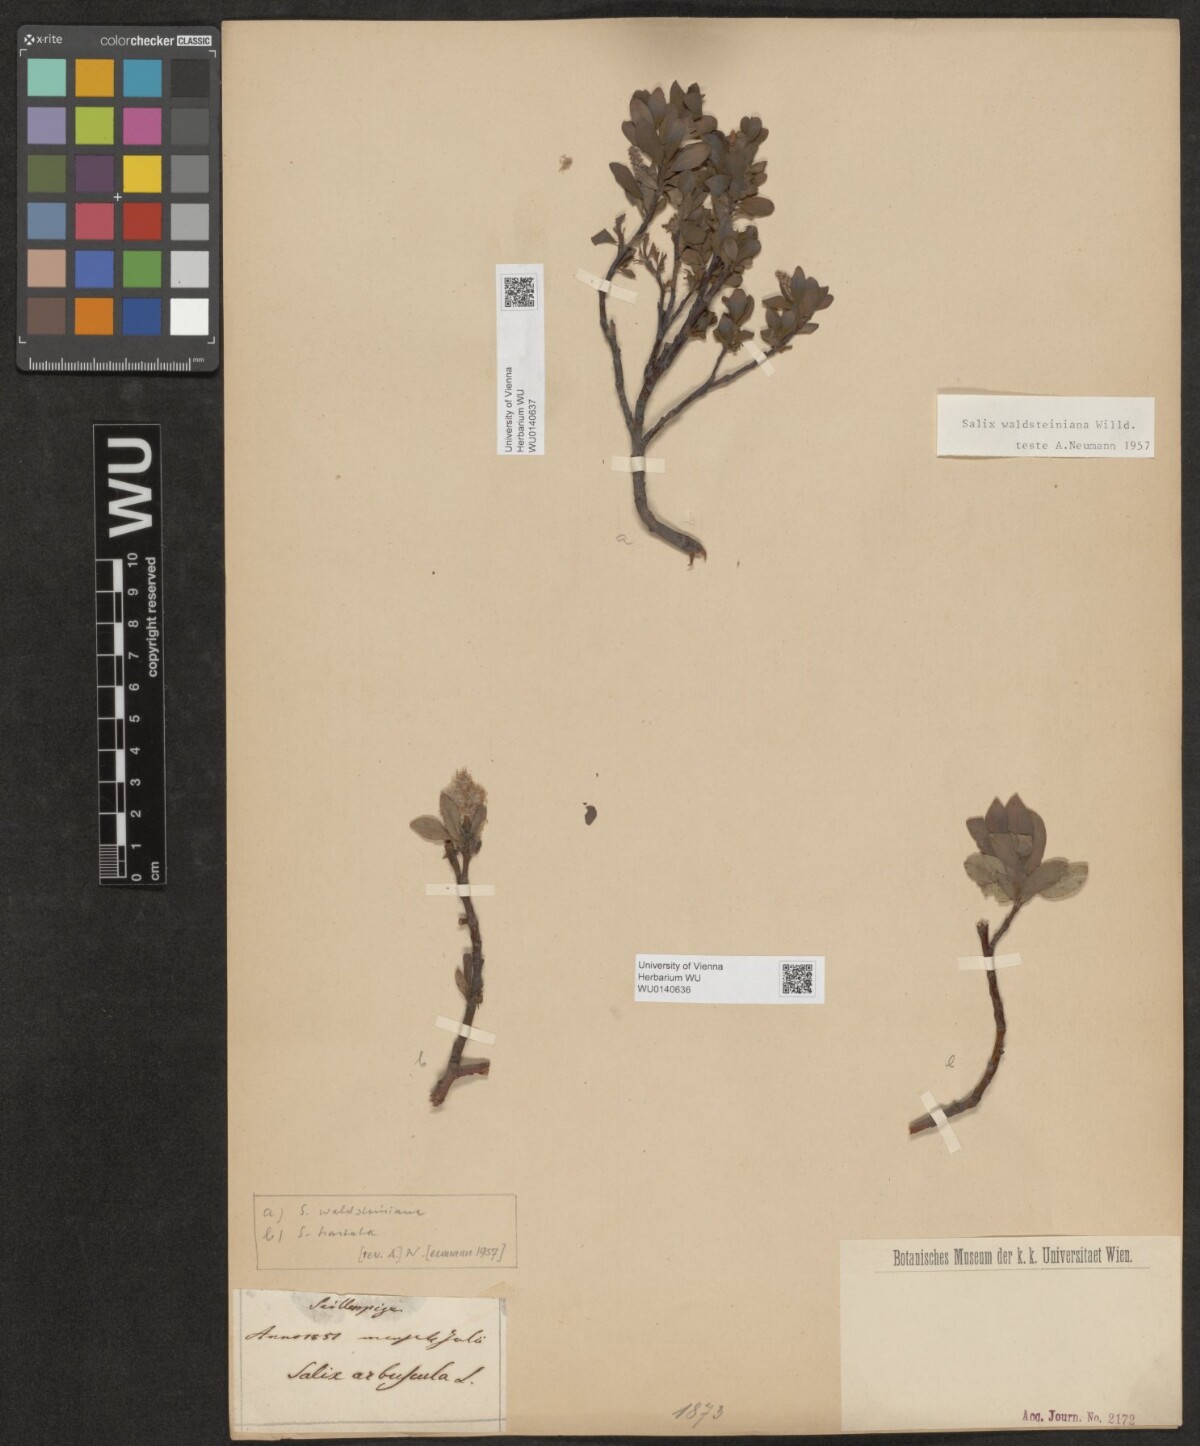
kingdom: Plantae
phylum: Tracheophyta
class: Magnoliopsida
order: Malpighiales
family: Salicaceae
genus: Salix
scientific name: Salix waldsteiniana
